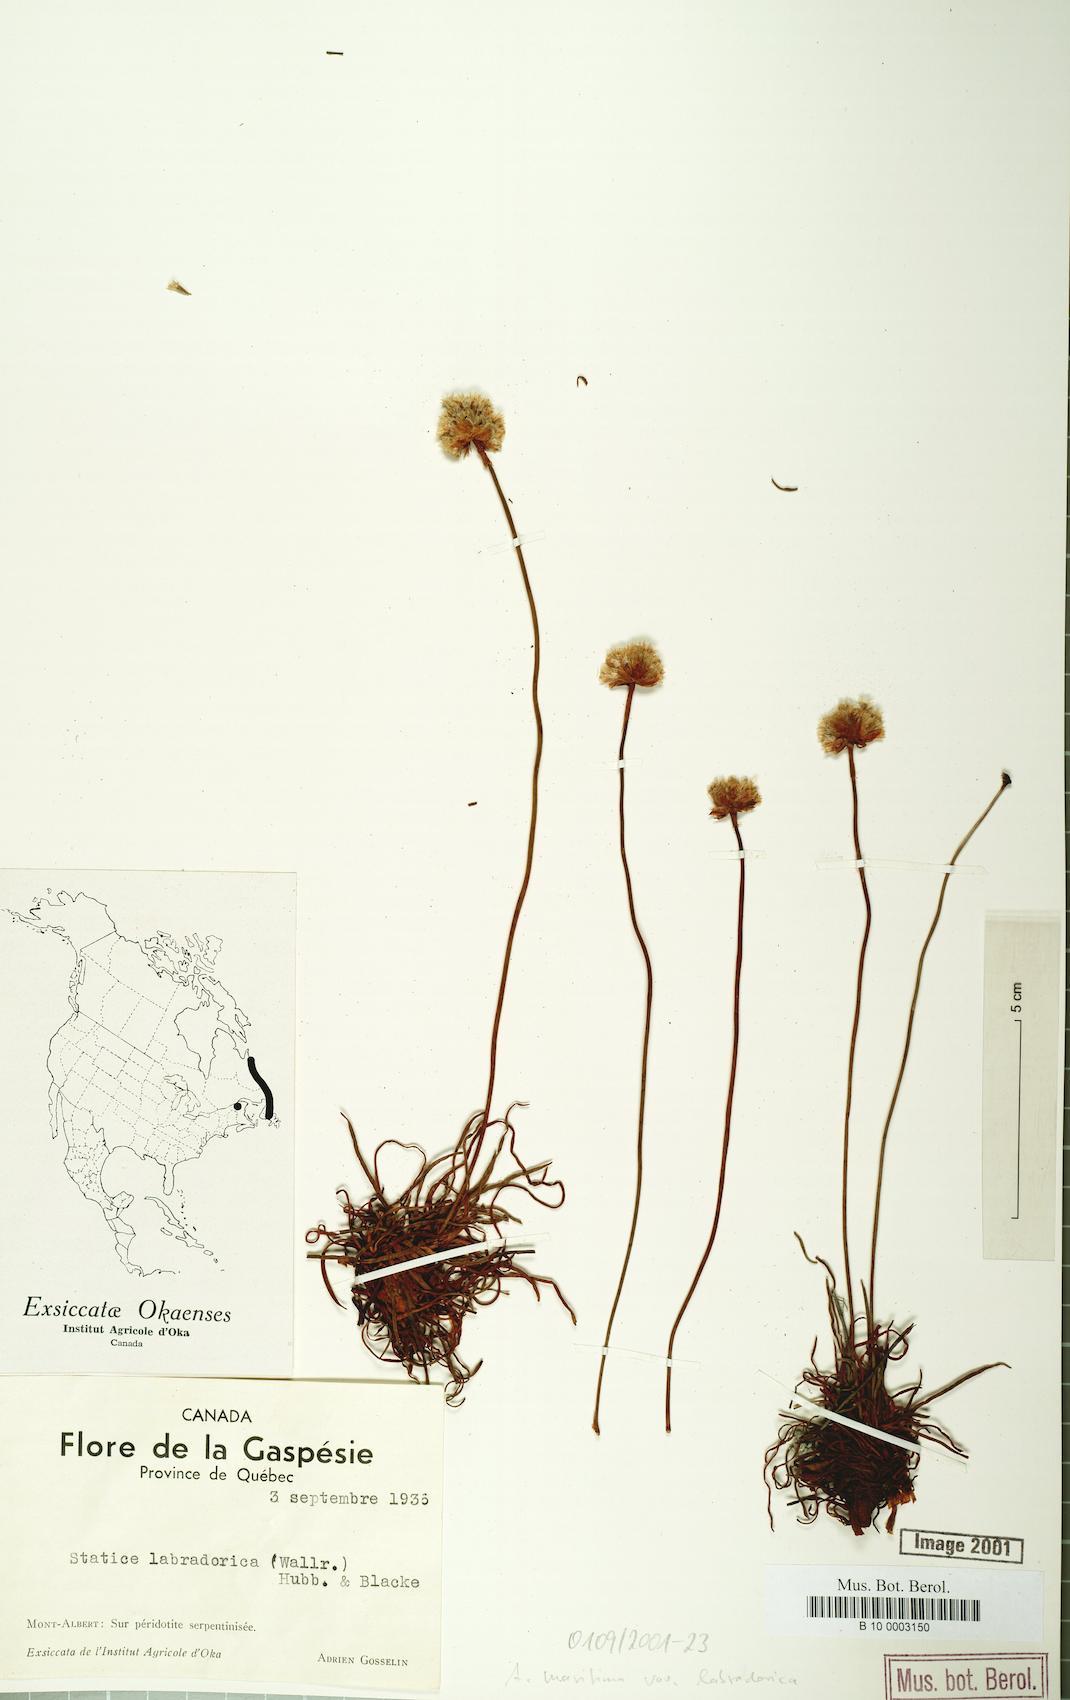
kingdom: Plantae
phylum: Tracheophyta
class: Magnoliopsida
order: Caryophyllales
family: Plumbaginaceae
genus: Armeria
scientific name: Armeria maritima
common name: Thrift
